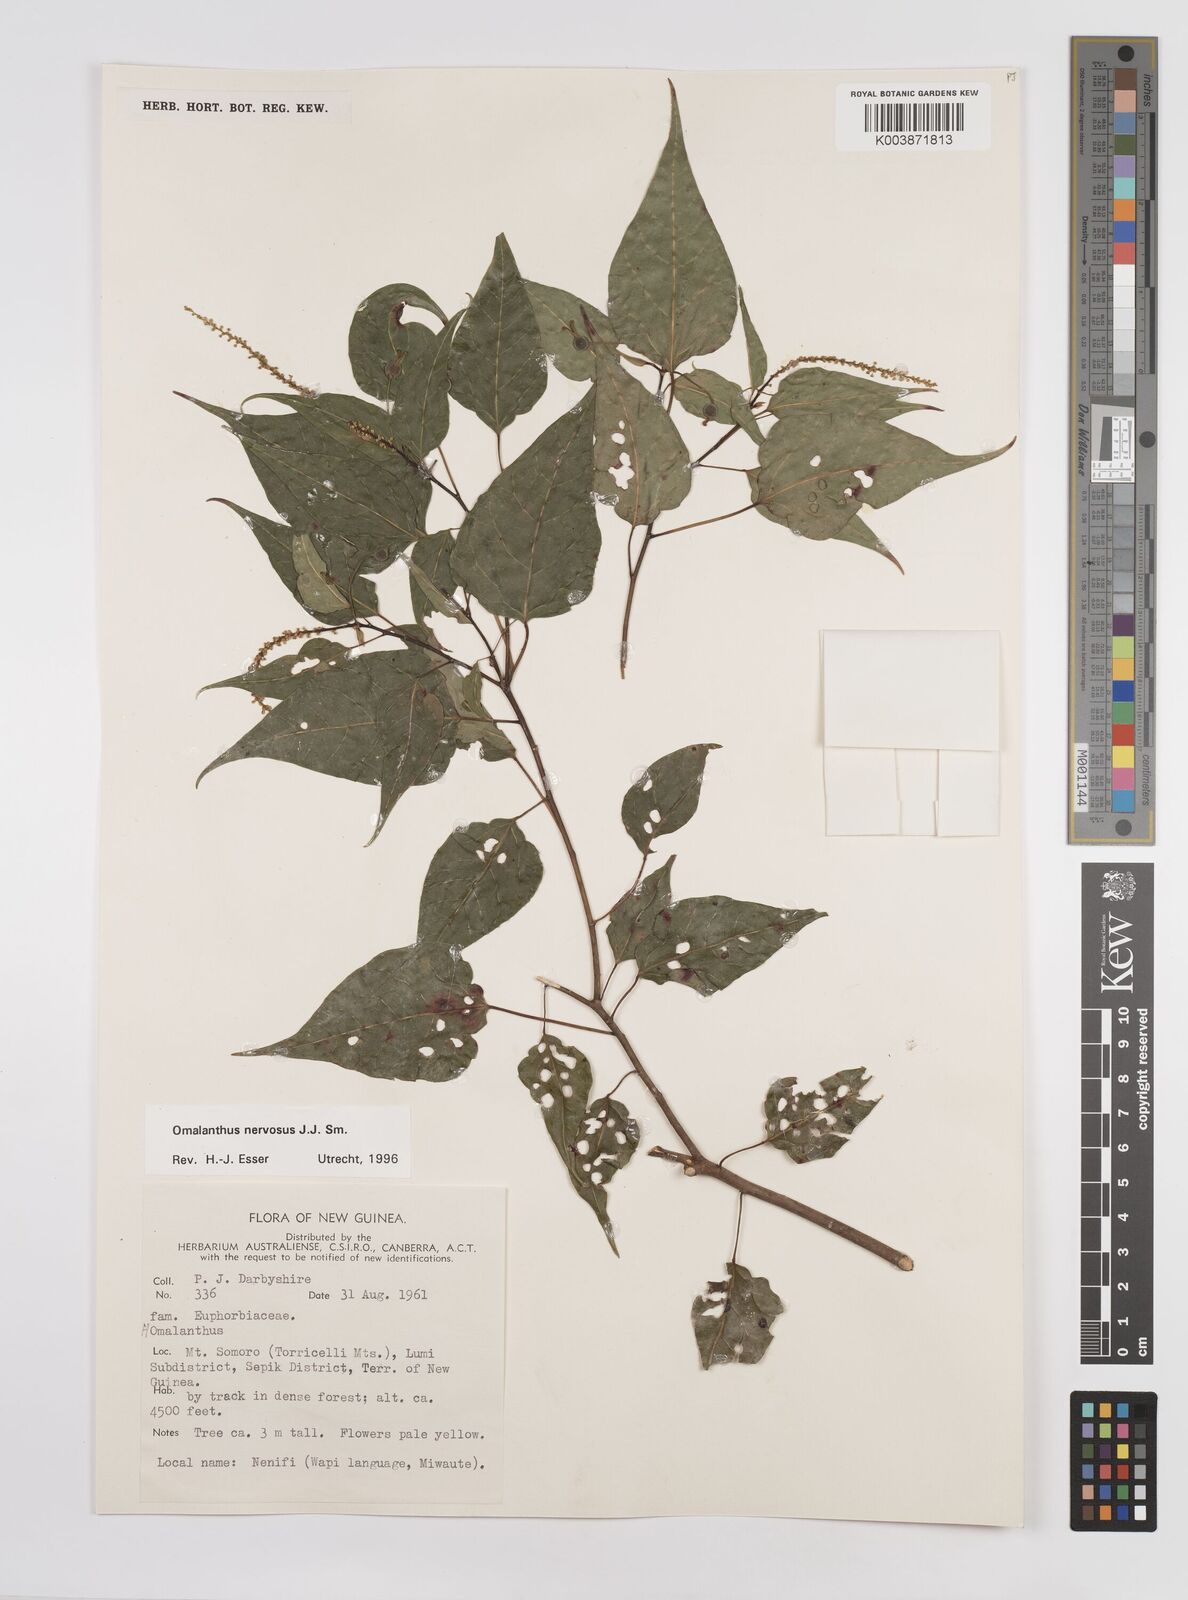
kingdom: Plantae
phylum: Tracheophyta
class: Magnoliopsida
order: Malpighiales
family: Euphorbiaceae
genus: Homalanthus
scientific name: Homalanthus nervosus
